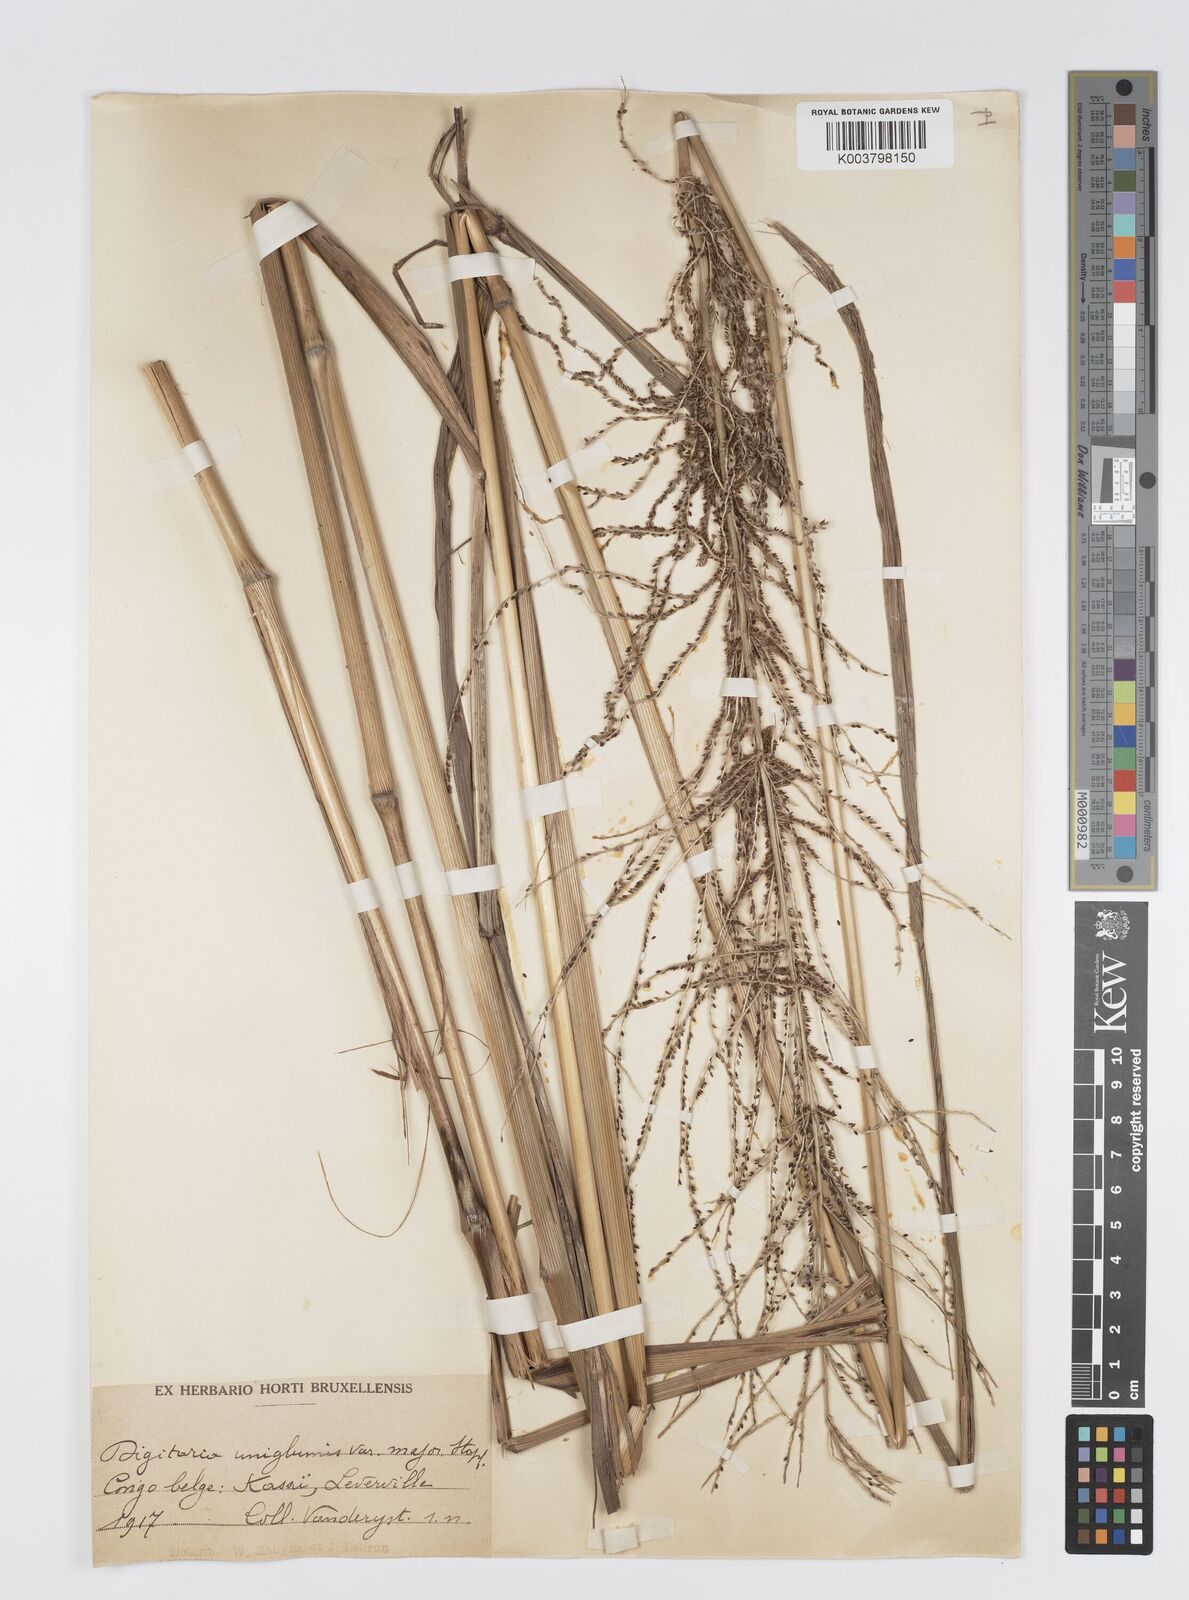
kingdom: Plantae
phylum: Tracheophyta
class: Liliopsida
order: Poales
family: Poaceae
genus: Digitaria
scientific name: Digitaria diagonalis
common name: Brown-seed finger grass
